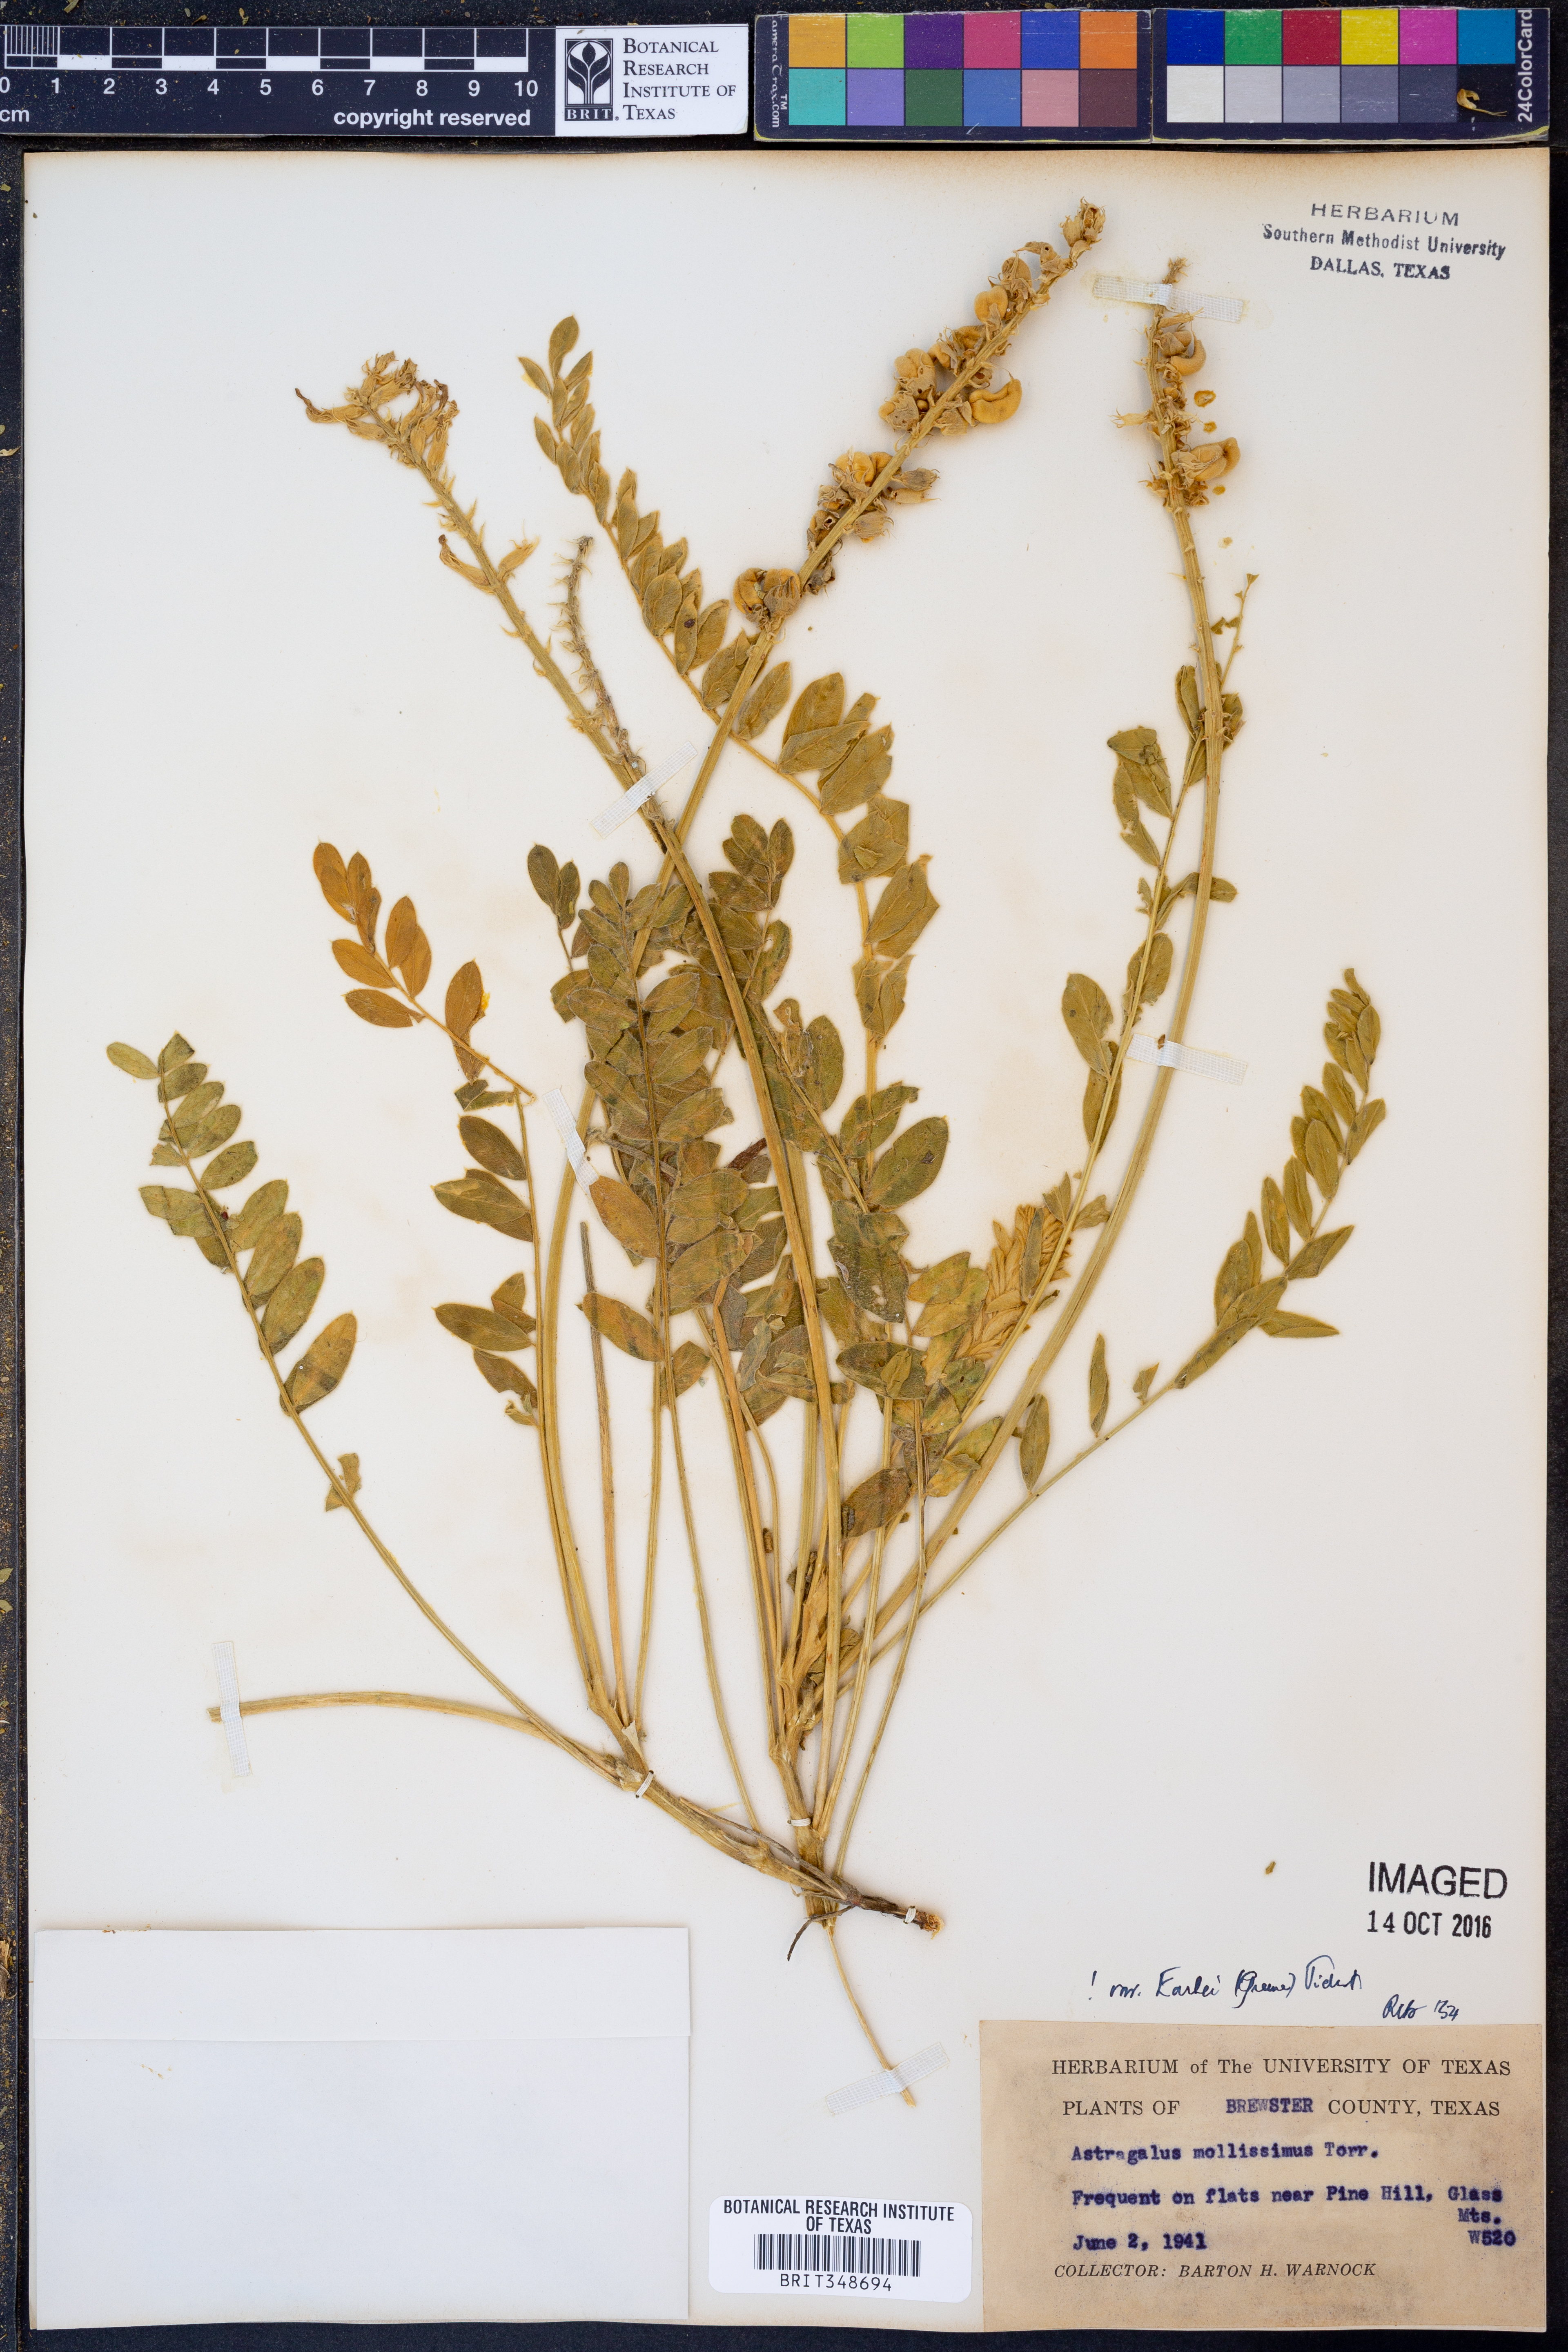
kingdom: Plantae
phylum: Tracheophyta
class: Magnoliopsida
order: Fabales
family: Fabaceae
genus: Astragalus
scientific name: Astragalus mollissimus
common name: Woolly locoweed
